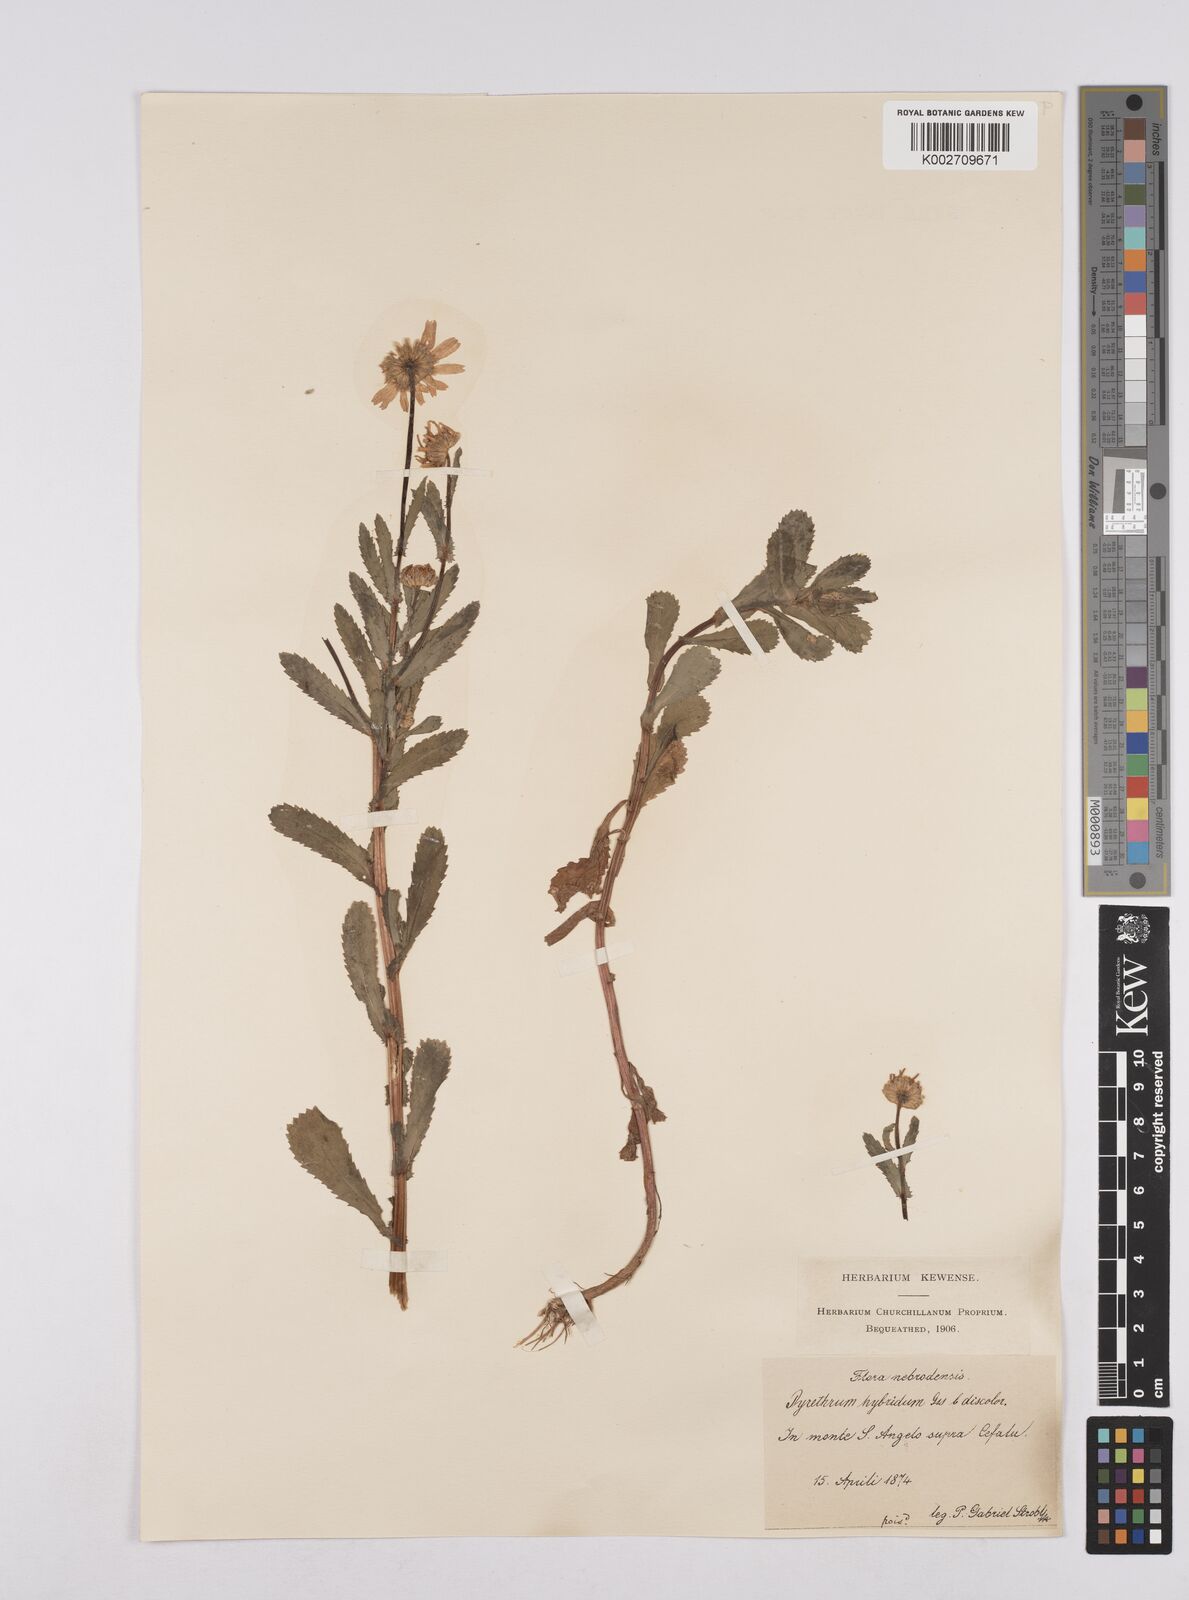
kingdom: Plantae
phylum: Tracheophyta
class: Magnoliopsida
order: Asterales
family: Asteraceae
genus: Coleostephus
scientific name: Coleostephus paludosus
